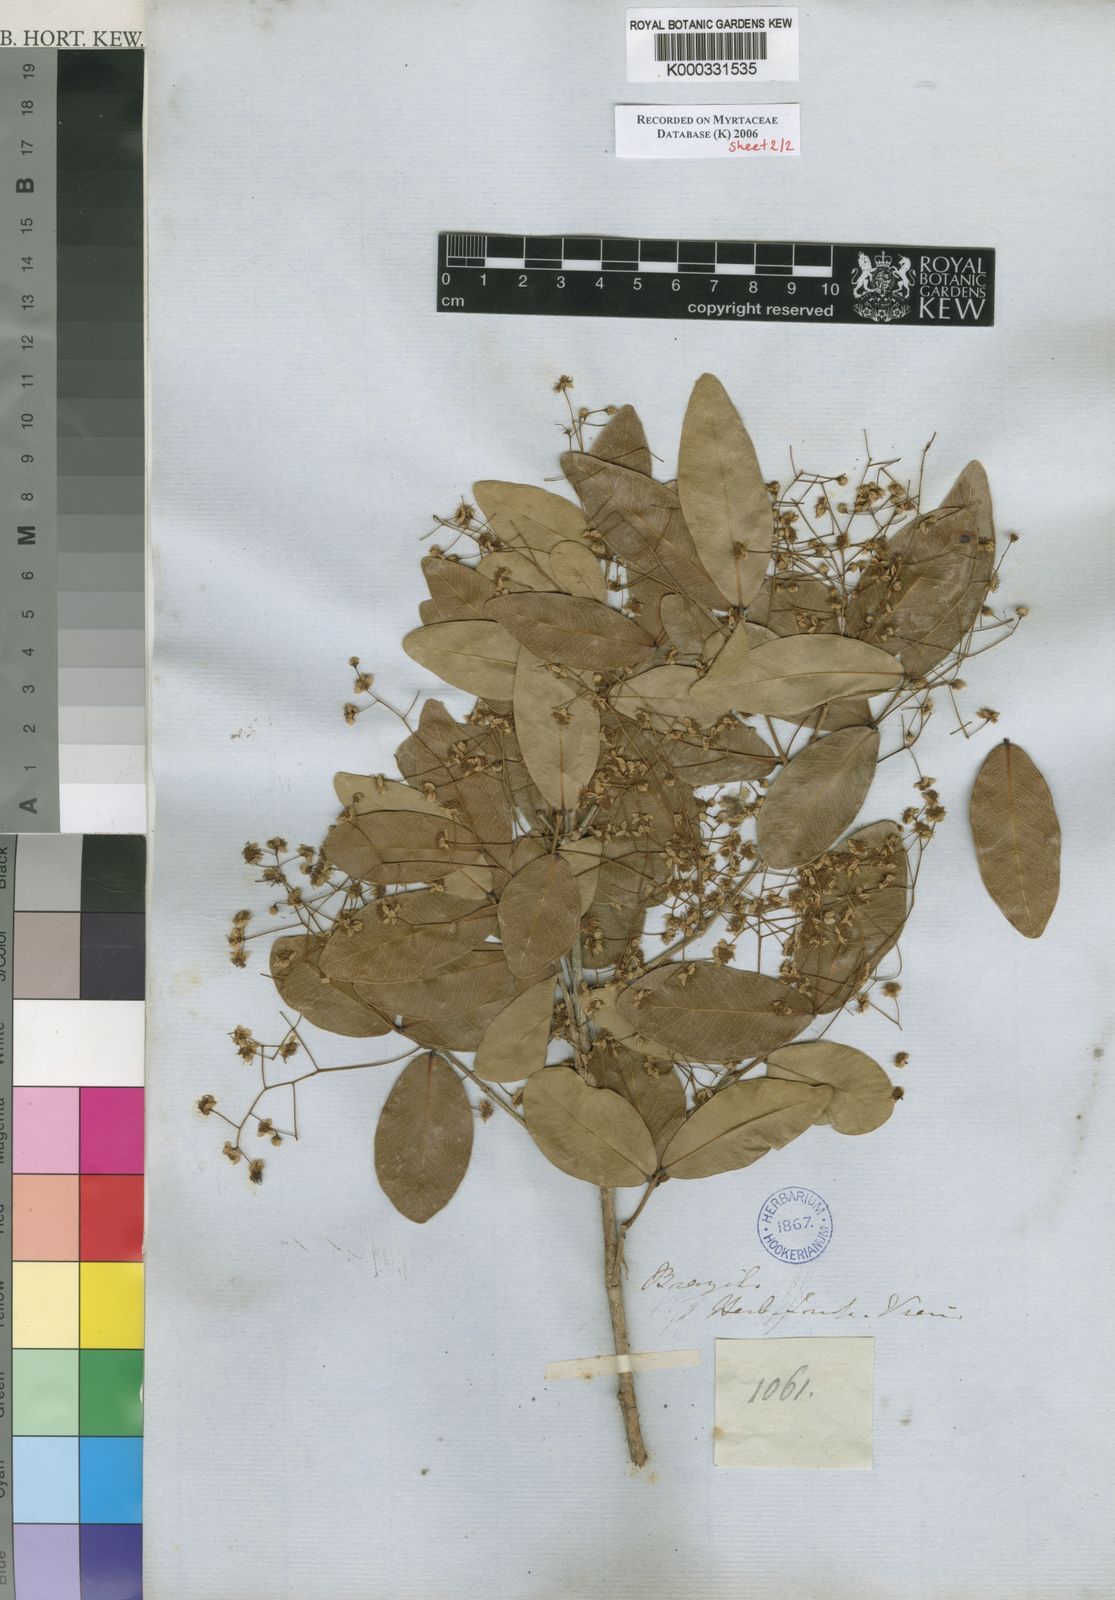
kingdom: Plantae
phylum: Tracheophyta
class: Magnoliopsida
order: Myrtales
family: Myrtaceae
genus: Myrcia
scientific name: Myrcia guianensis
